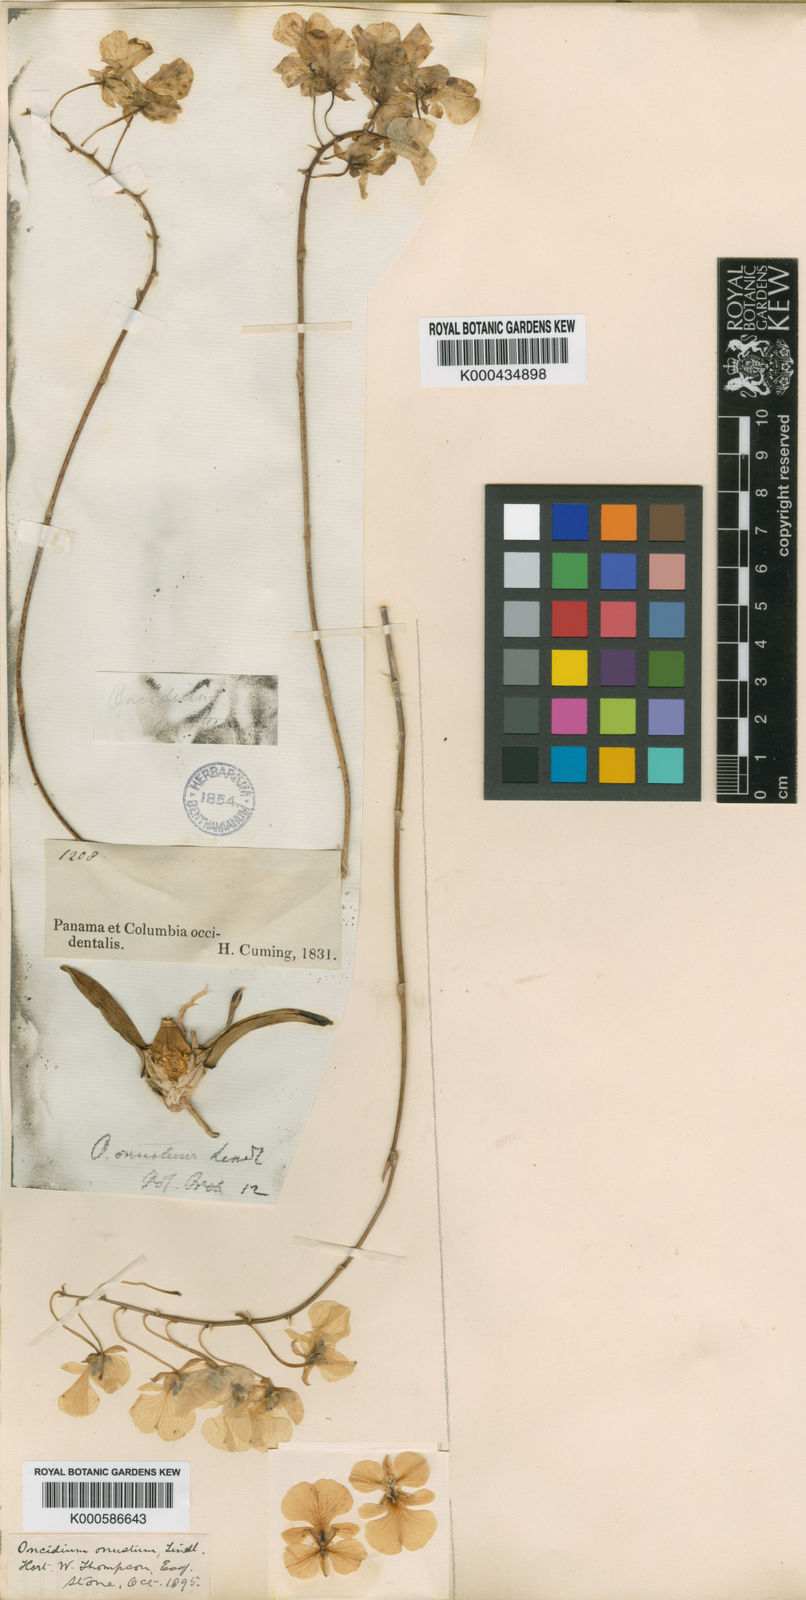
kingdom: Plantae
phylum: Tracheophyta
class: Liliopsida
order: Asparagales
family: Orchidaceae
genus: Zelenkoa
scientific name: Zelenkoa onusta
